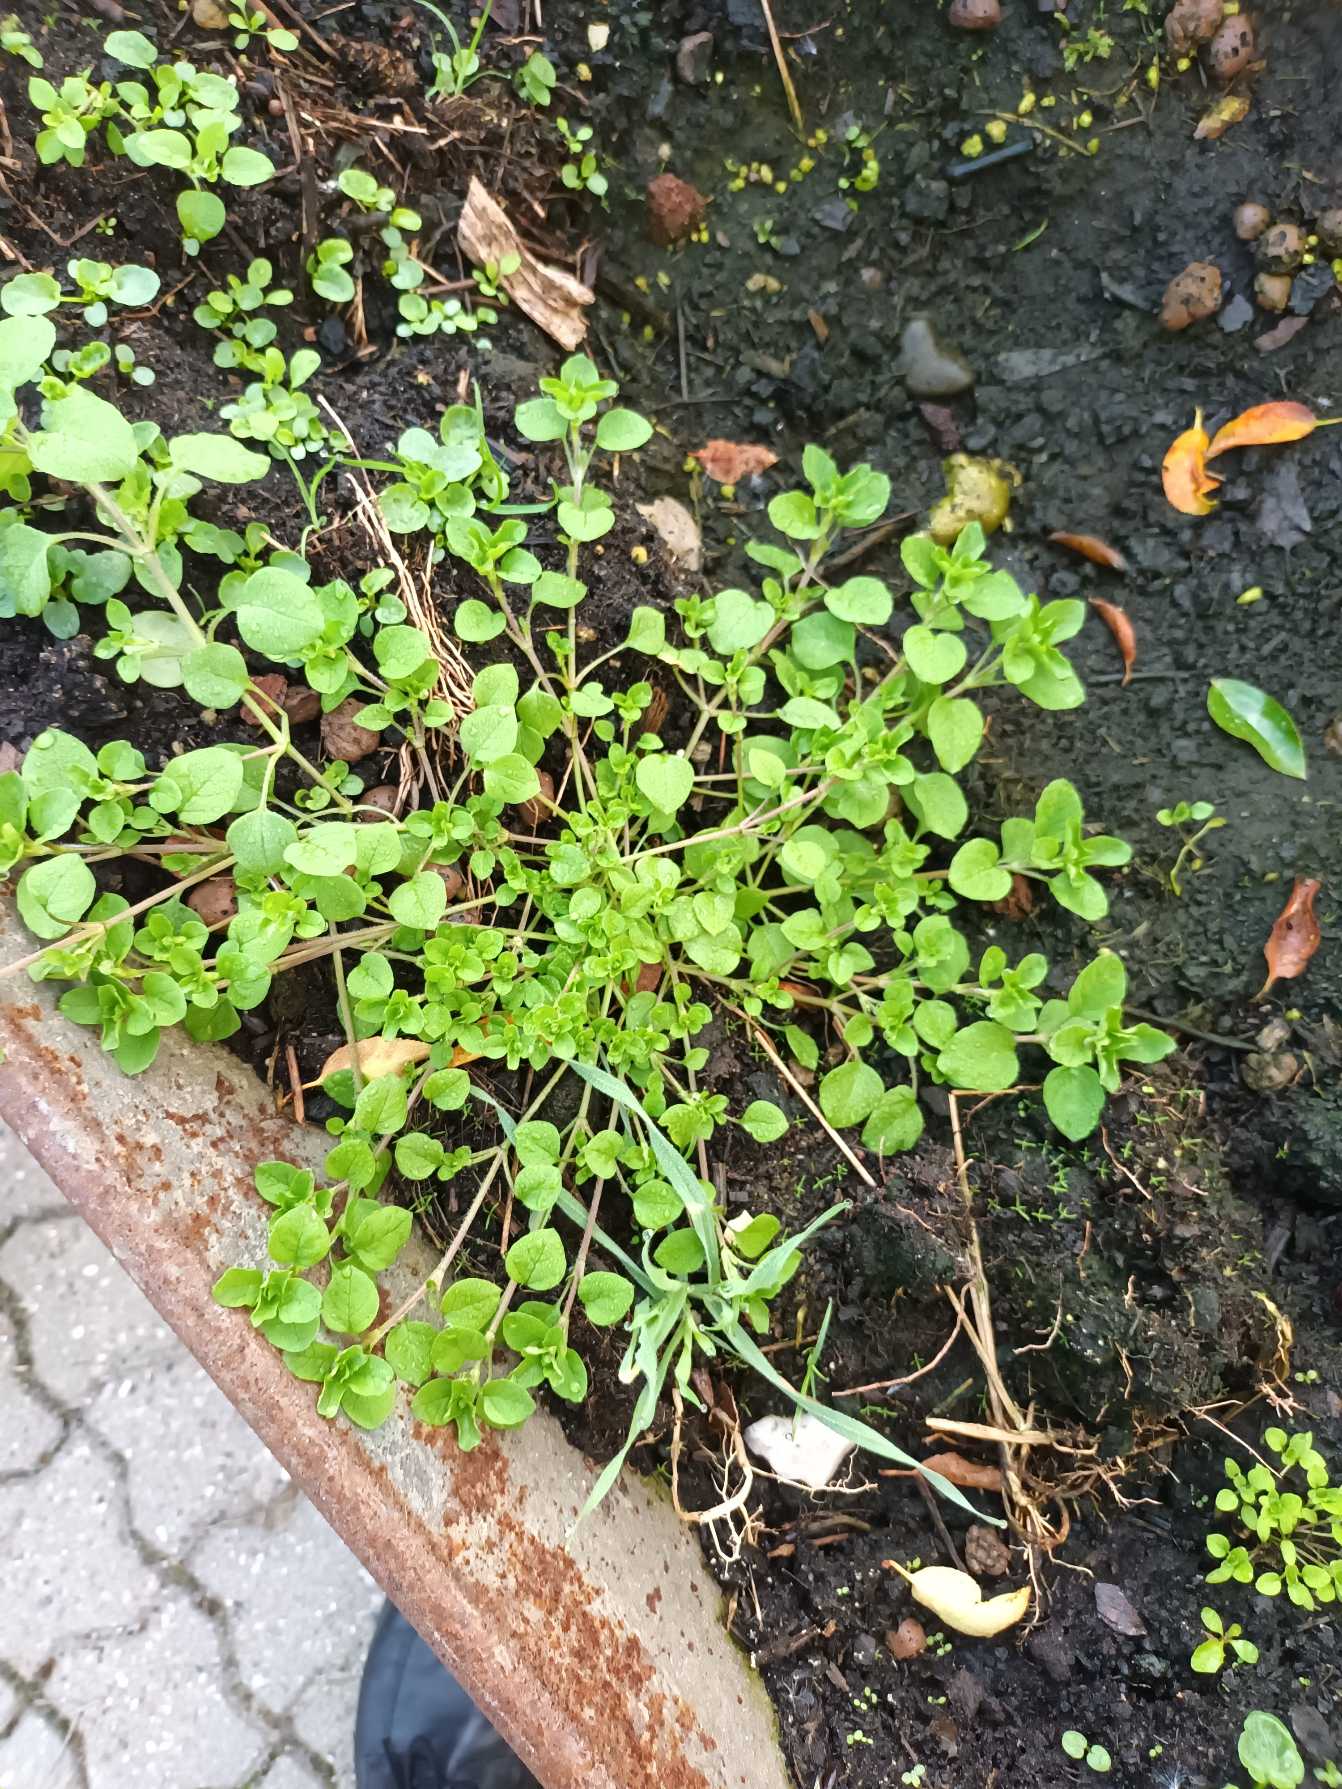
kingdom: Plantae
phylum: Tracheophyta
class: Magnoliopsida
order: Caryophyllales
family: Caryophyllaceae
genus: Stellaria
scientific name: Stellaria media
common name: Almindelig fuglegræs
